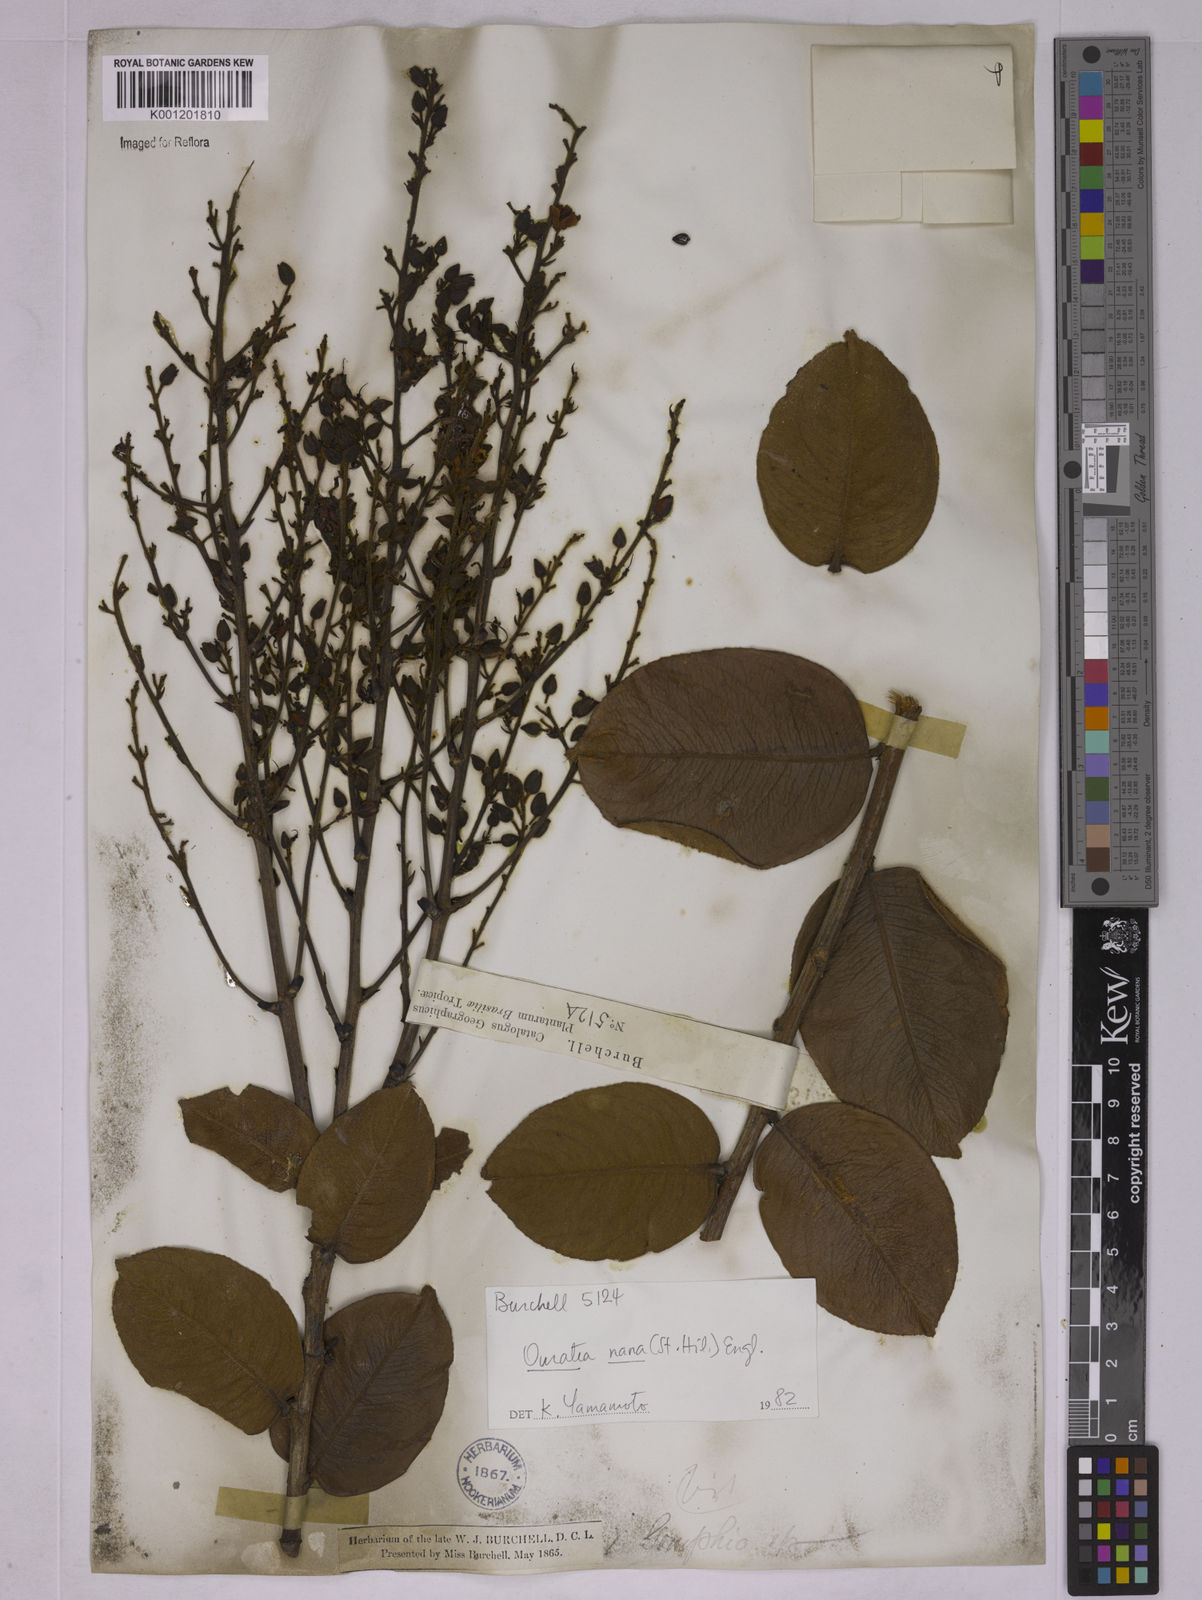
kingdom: Plantae
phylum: Tracheophyta
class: Magnoliopsida
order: Malpighiales
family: Ochnaceae
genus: Ouratea
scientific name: Ouratea nana
